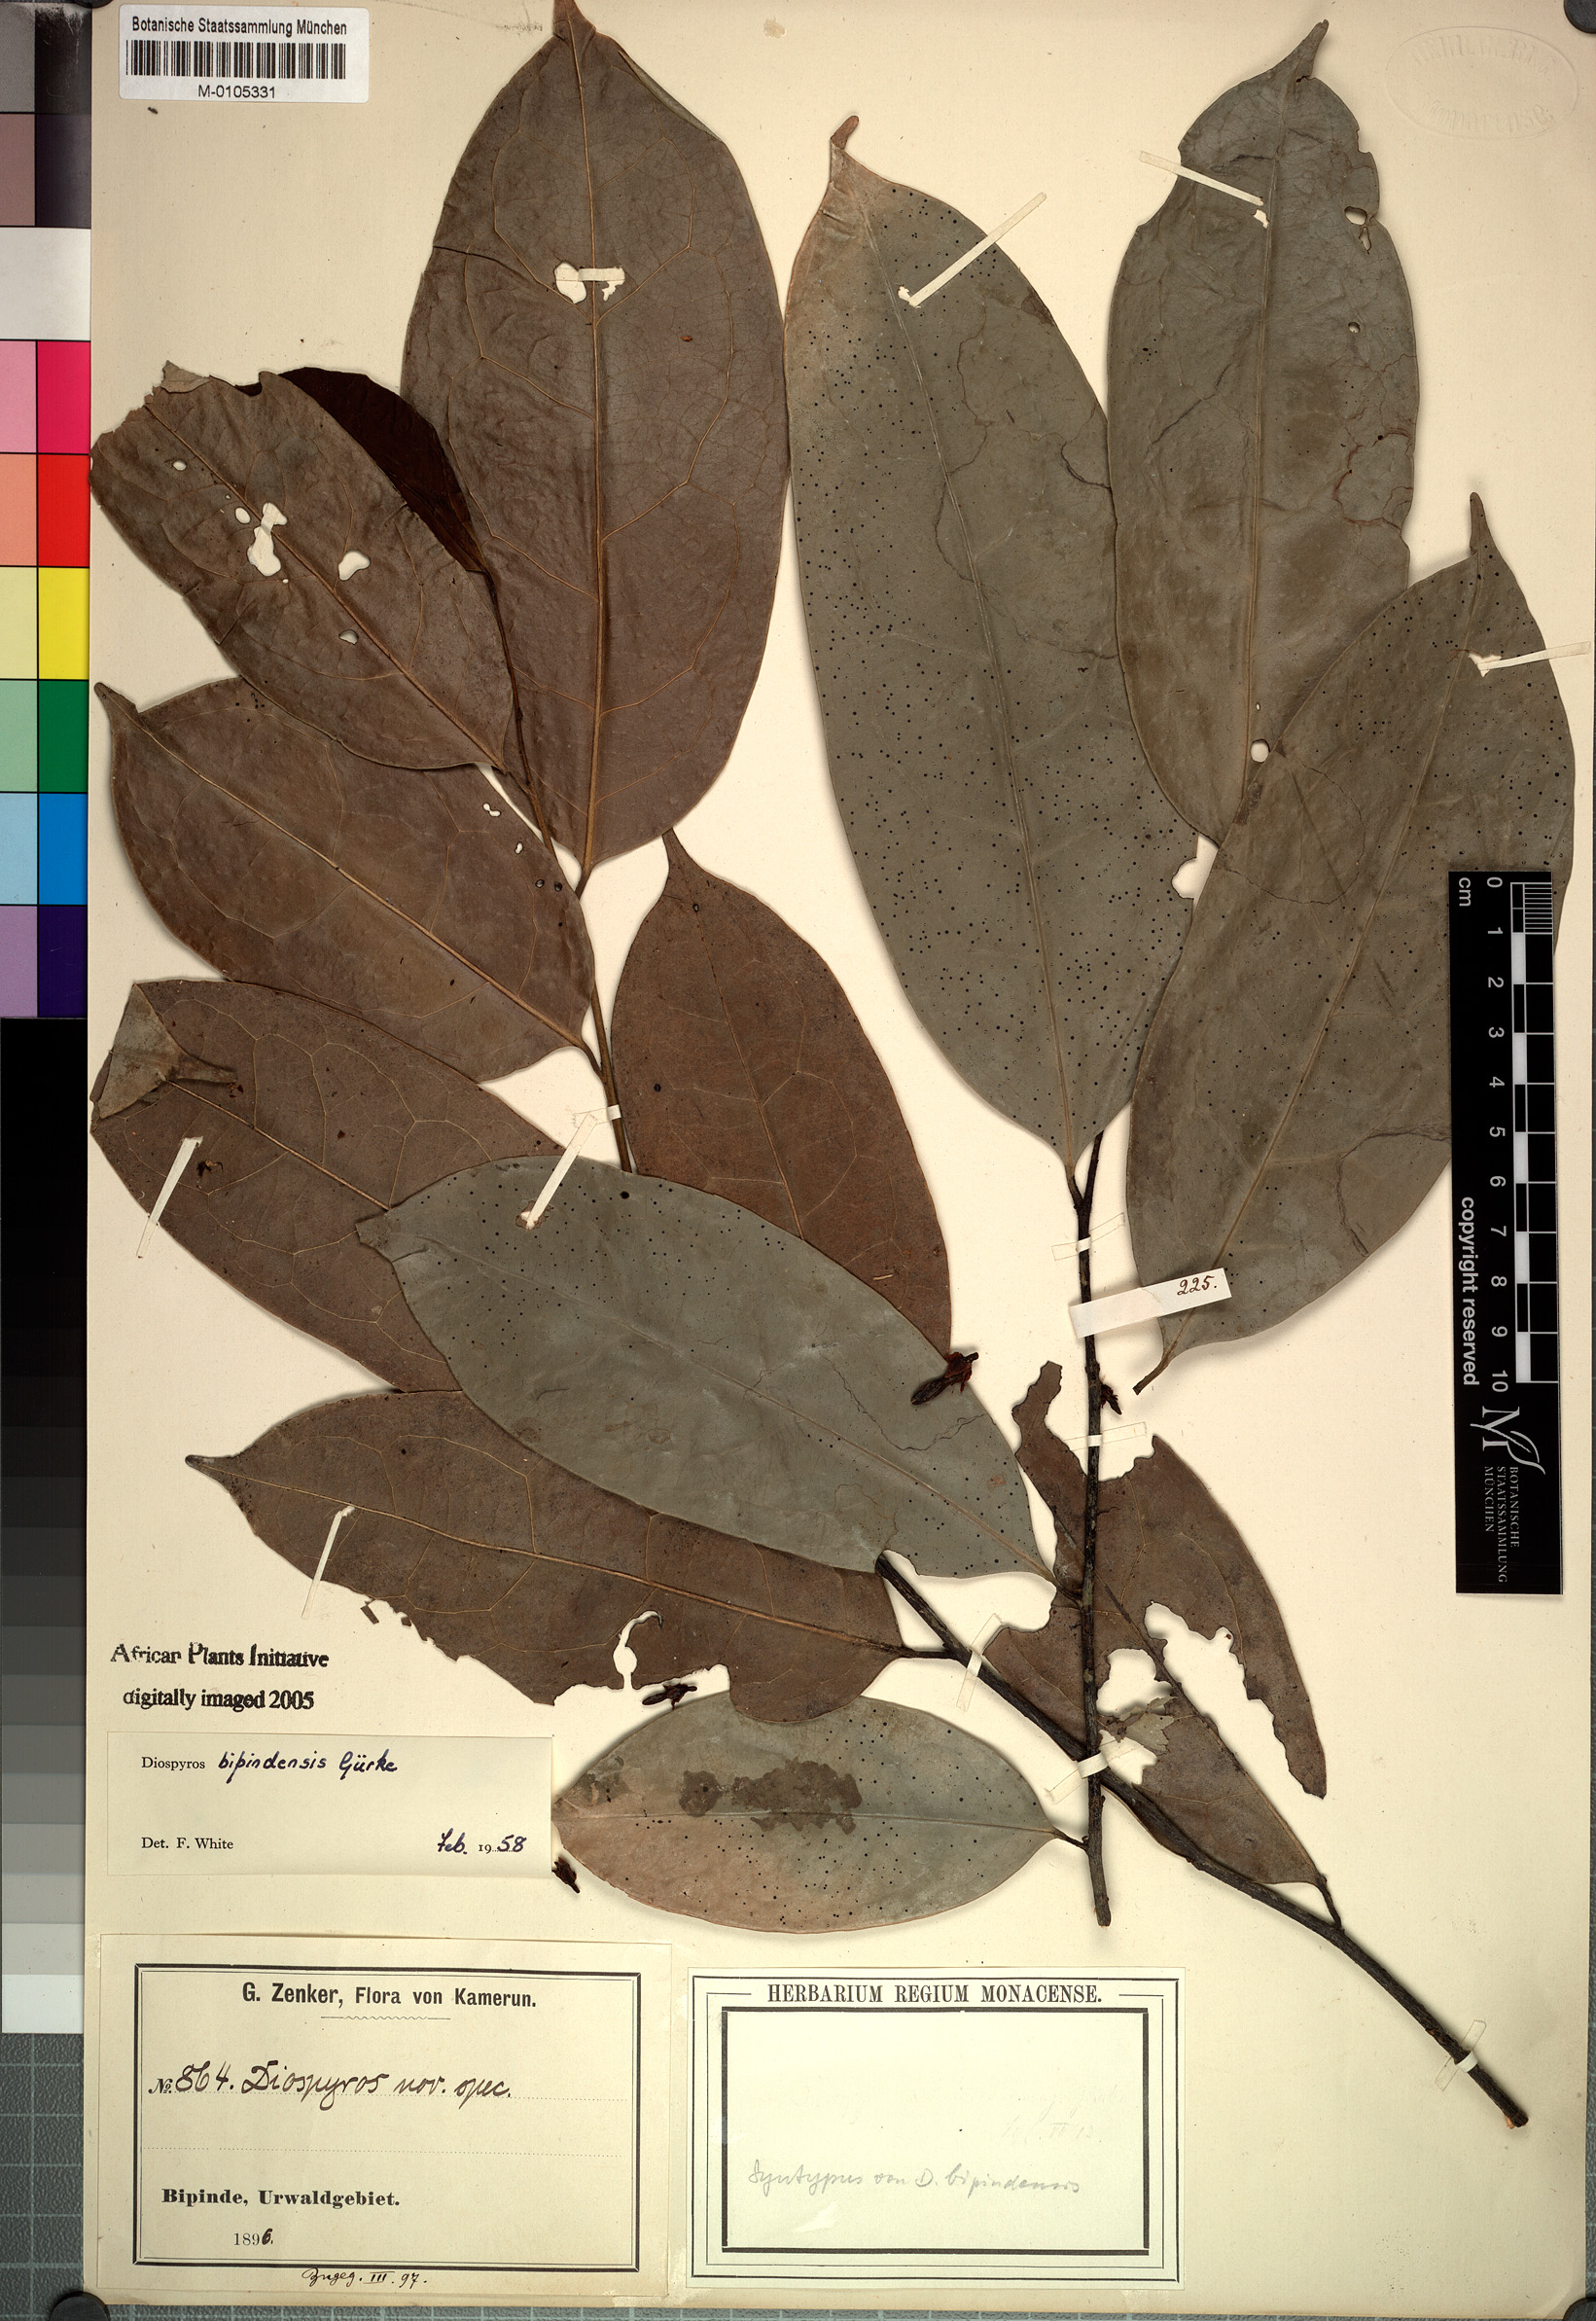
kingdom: Plantae
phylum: Tracheophyta
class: Magnoliopsida
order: Ericales
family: Ebenaceae
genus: Diospyros
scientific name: Diospyros bipindensis
